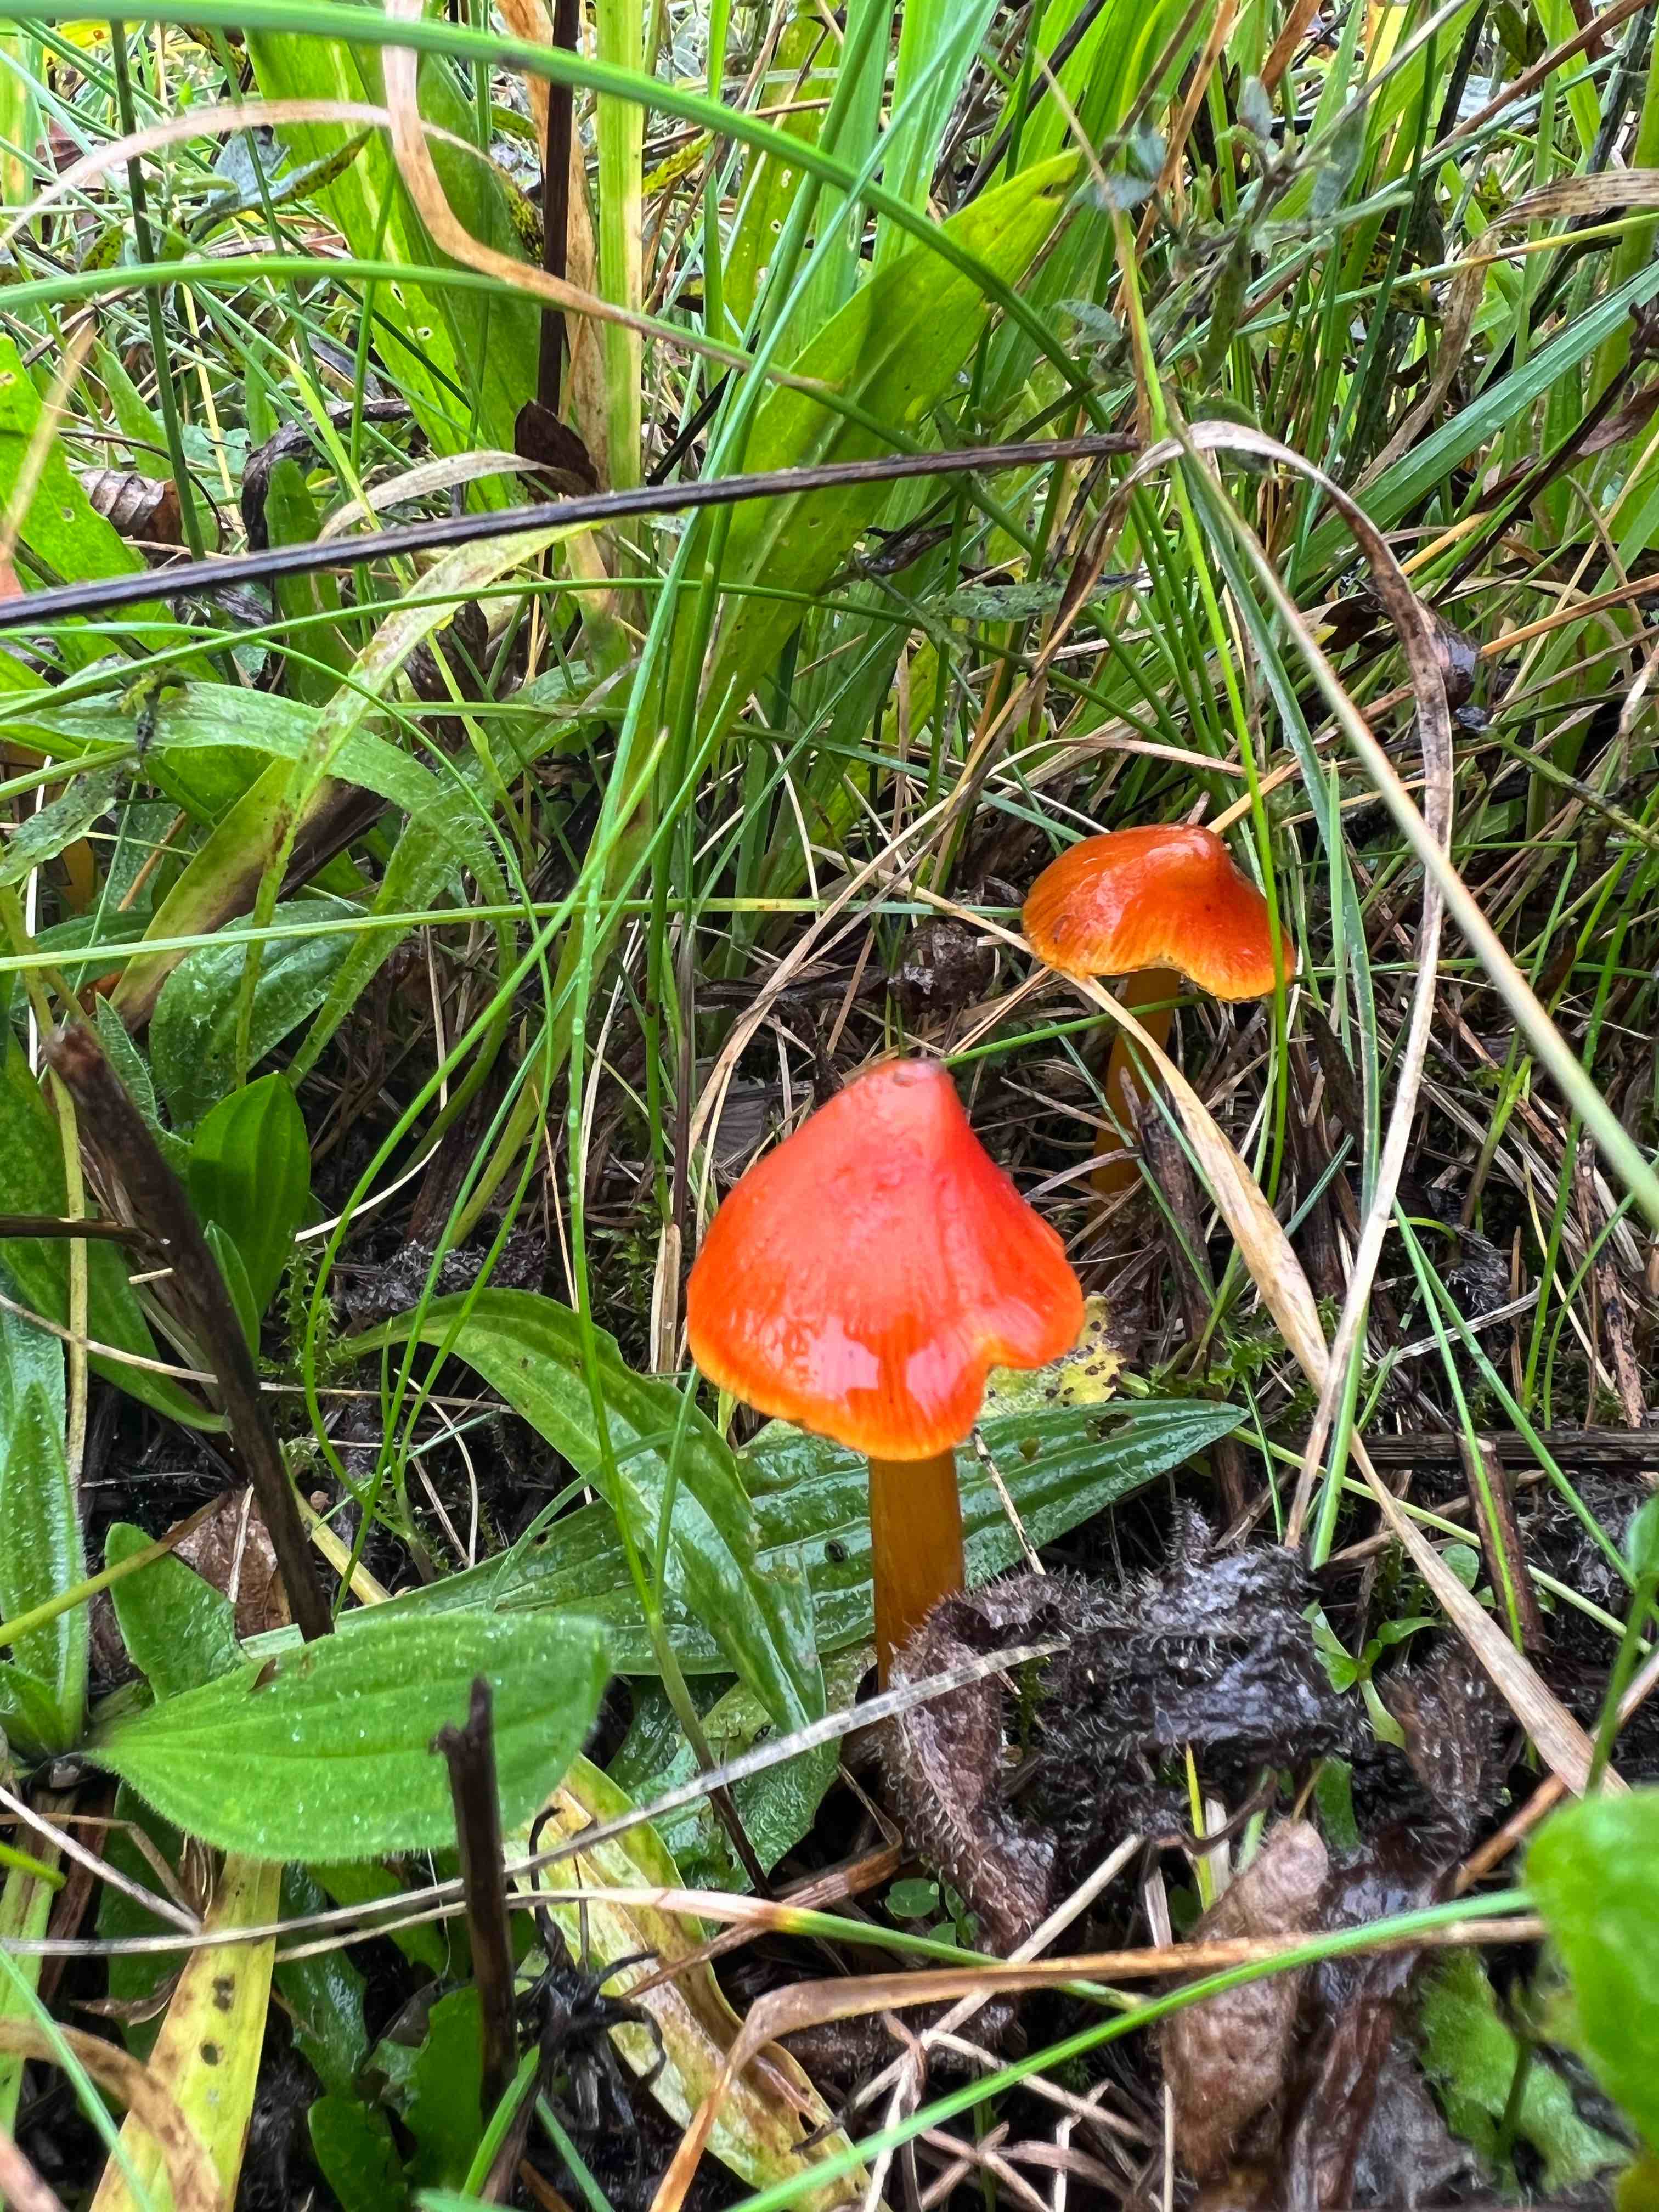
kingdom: Fungi
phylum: Basidiomycota
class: Agaricomycetes
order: Agaricales
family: Hygrophoraceae
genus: Hygrocybe
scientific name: Hygrocybe conica
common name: kegle-vokshat
